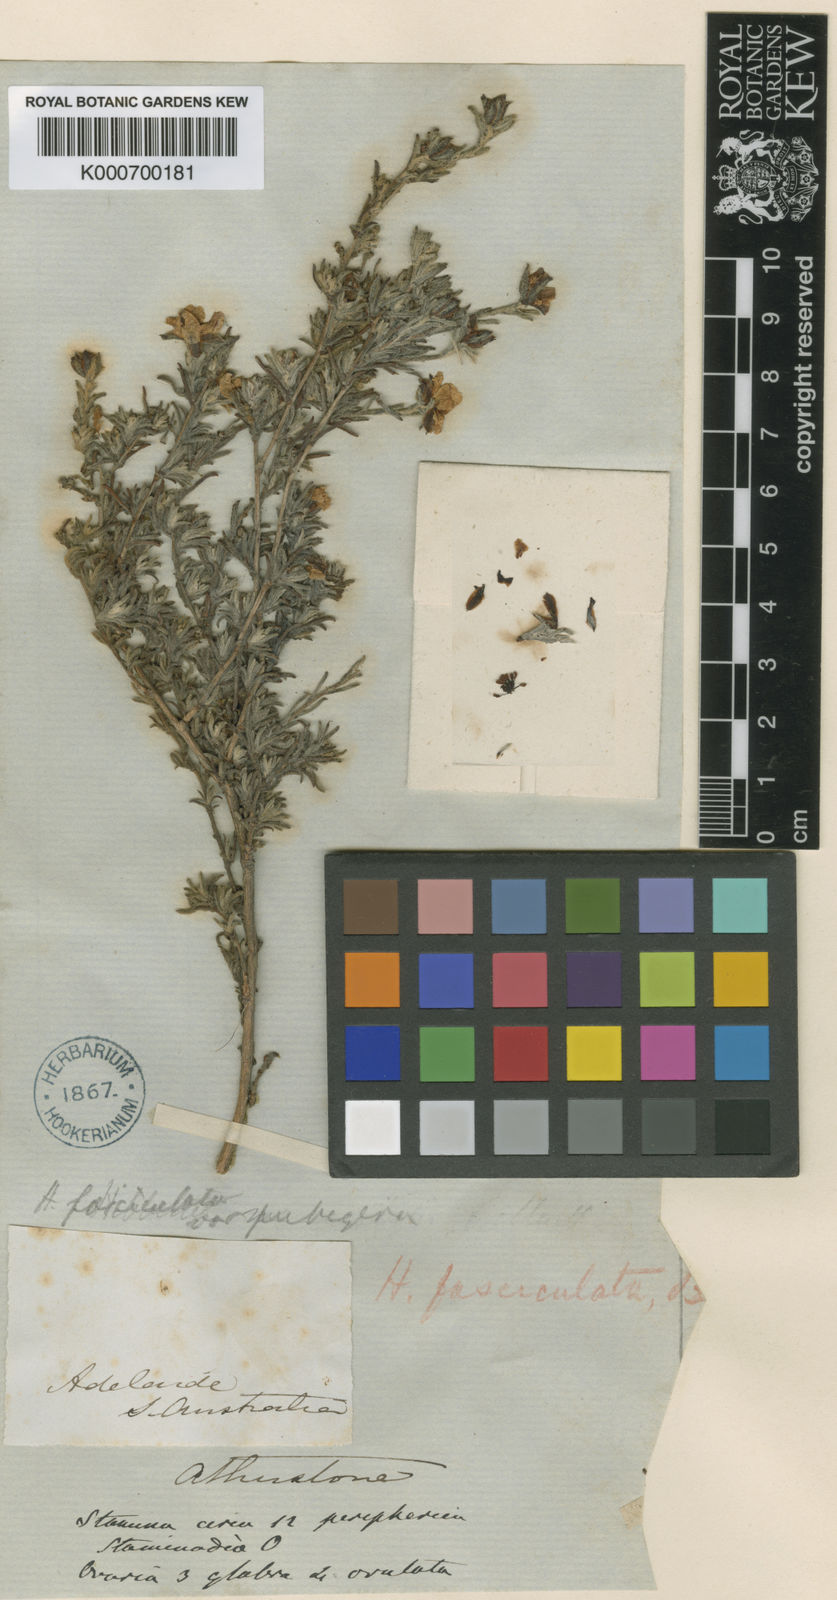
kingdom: Plantae
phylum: Tracheophyta
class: Magnoliopsida
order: Dilleniales
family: Dilleniaceae
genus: Hibbertia
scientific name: Hibbertia fasciculata
